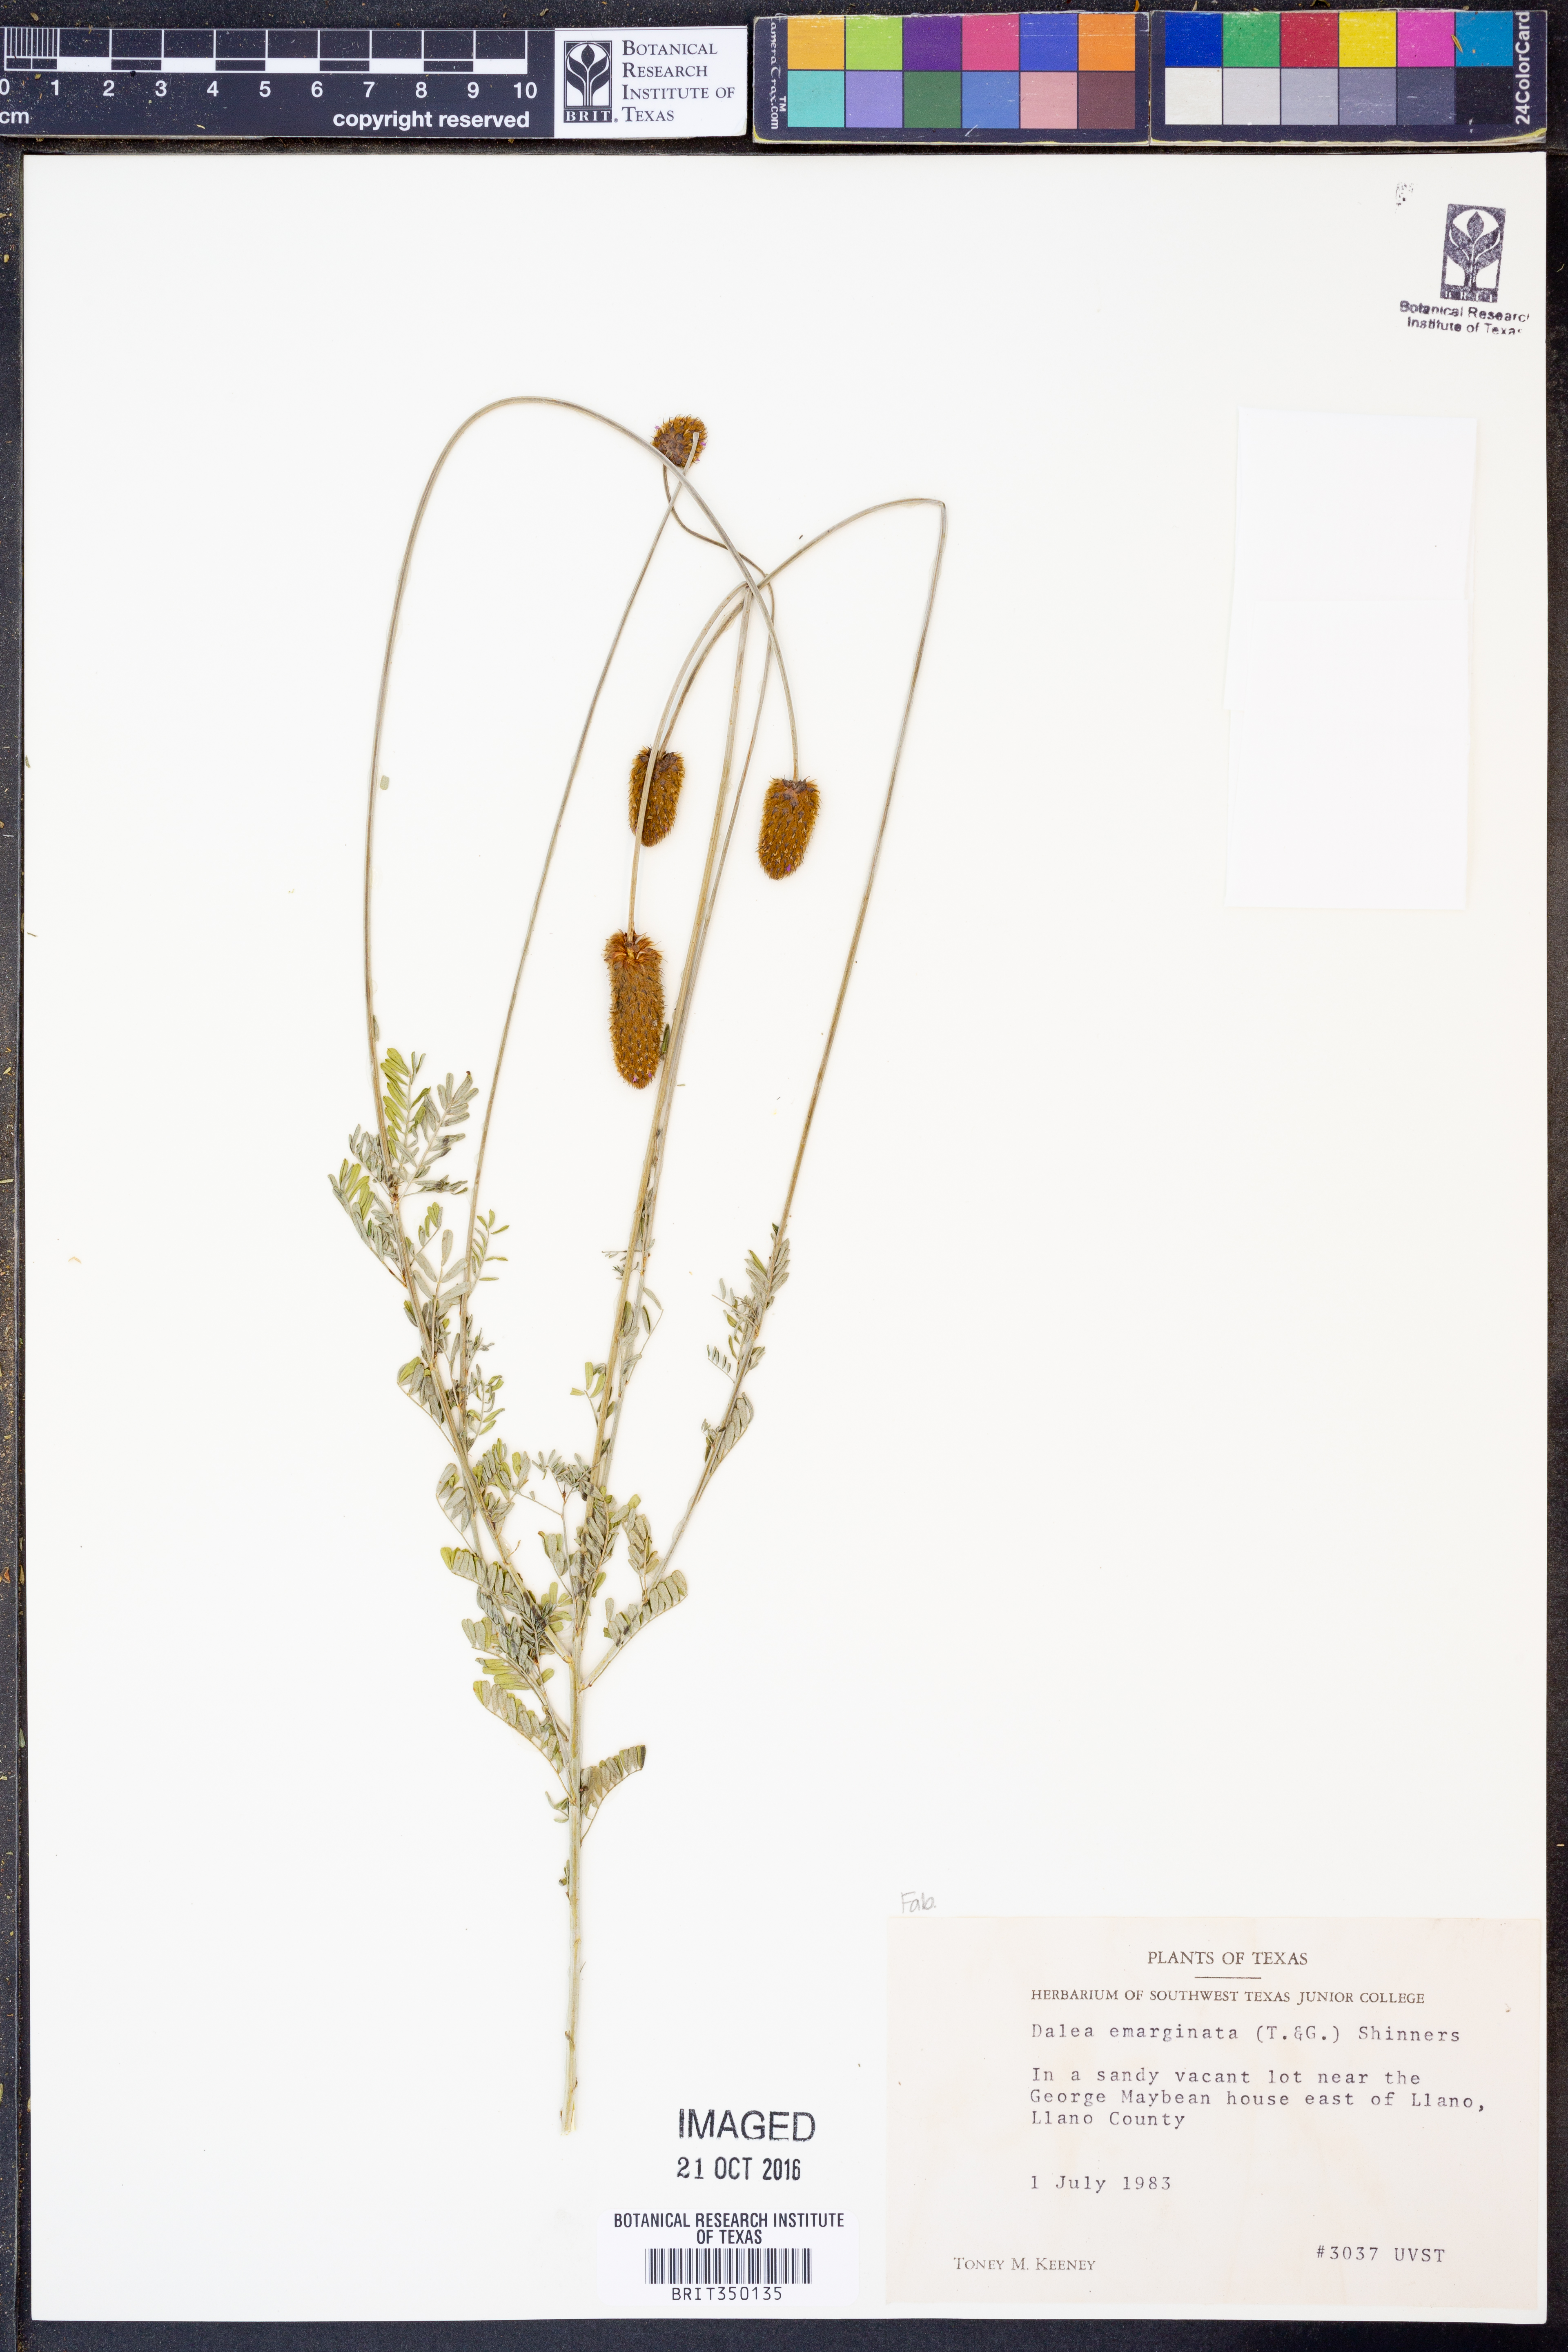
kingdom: Plantae
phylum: Tracheophyta
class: Magnoliopsida
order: Fabales
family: Fabaceae
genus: Dalea
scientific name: Dalea emarginata
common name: Wedgeleaf prairie clover
